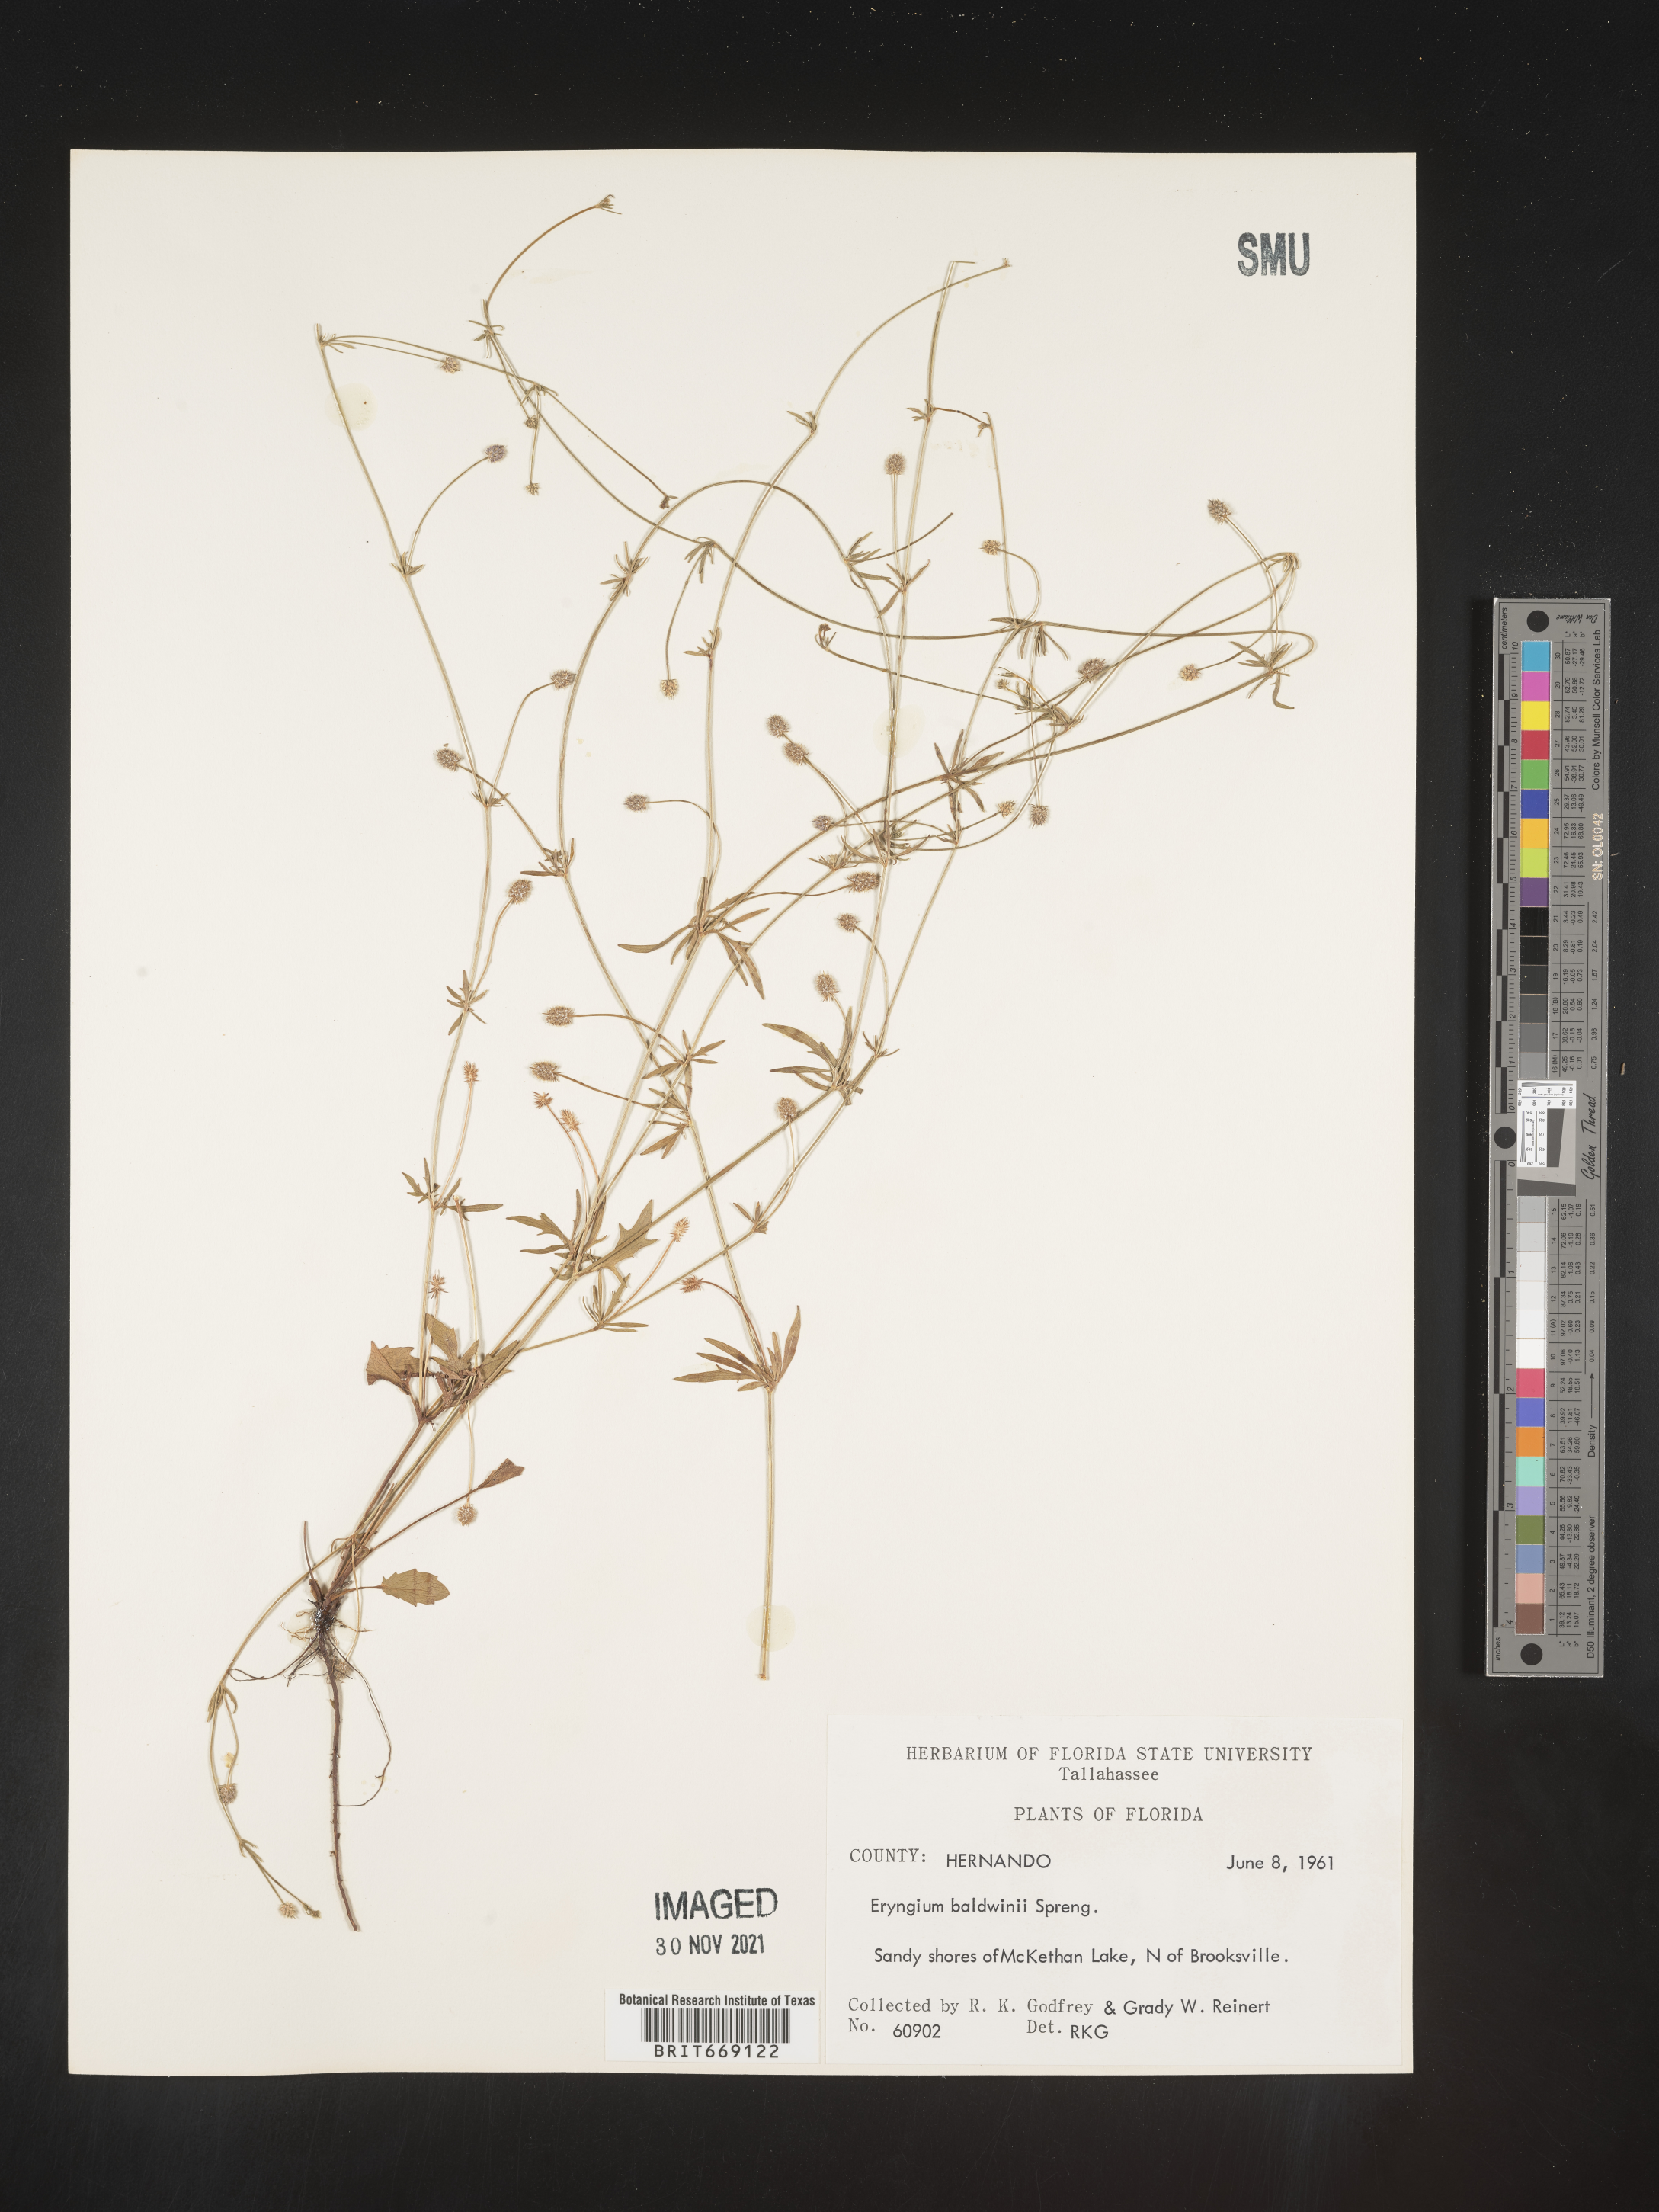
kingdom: Plantae
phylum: Tracheophyta
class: Magnoliopsida
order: Apiales
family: Apiaceae
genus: Eryngium
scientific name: Eryngium baldwinii
